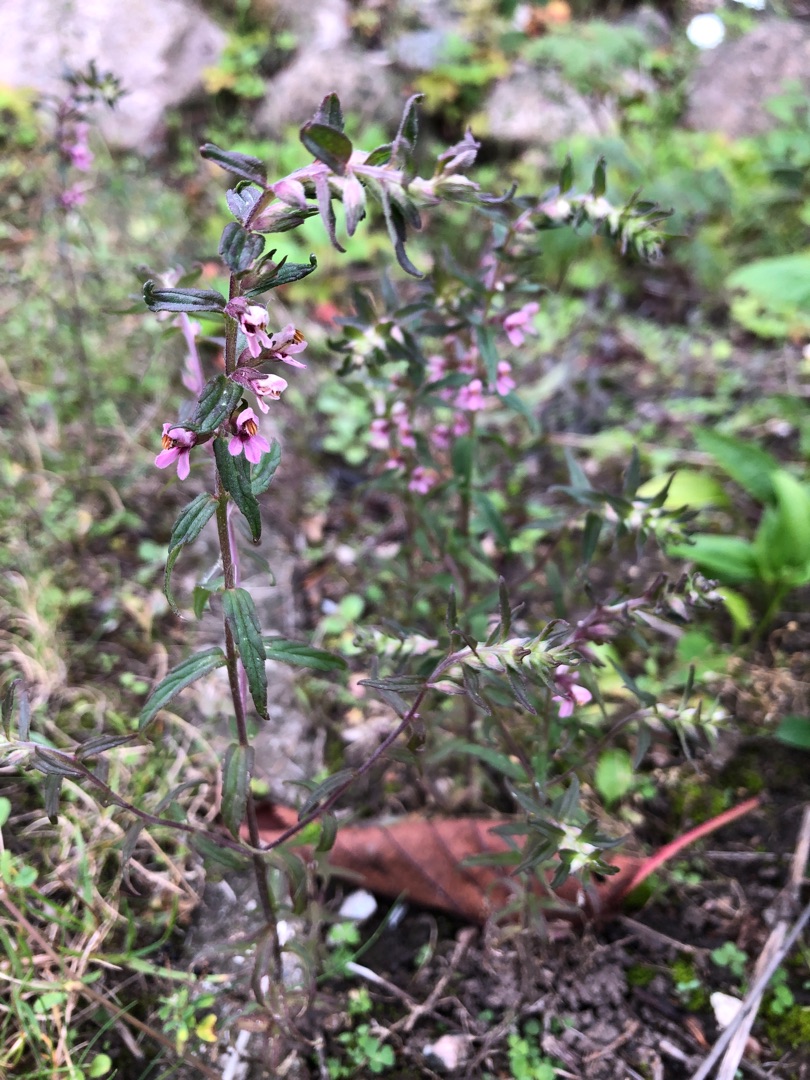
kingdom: Plantae
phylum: Tracheophyta
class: Magnoliopsida
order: Lamiales
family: Orobanchaceae
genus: Odontites
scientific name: Odontites vulgaris
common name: Høst-rødtop
